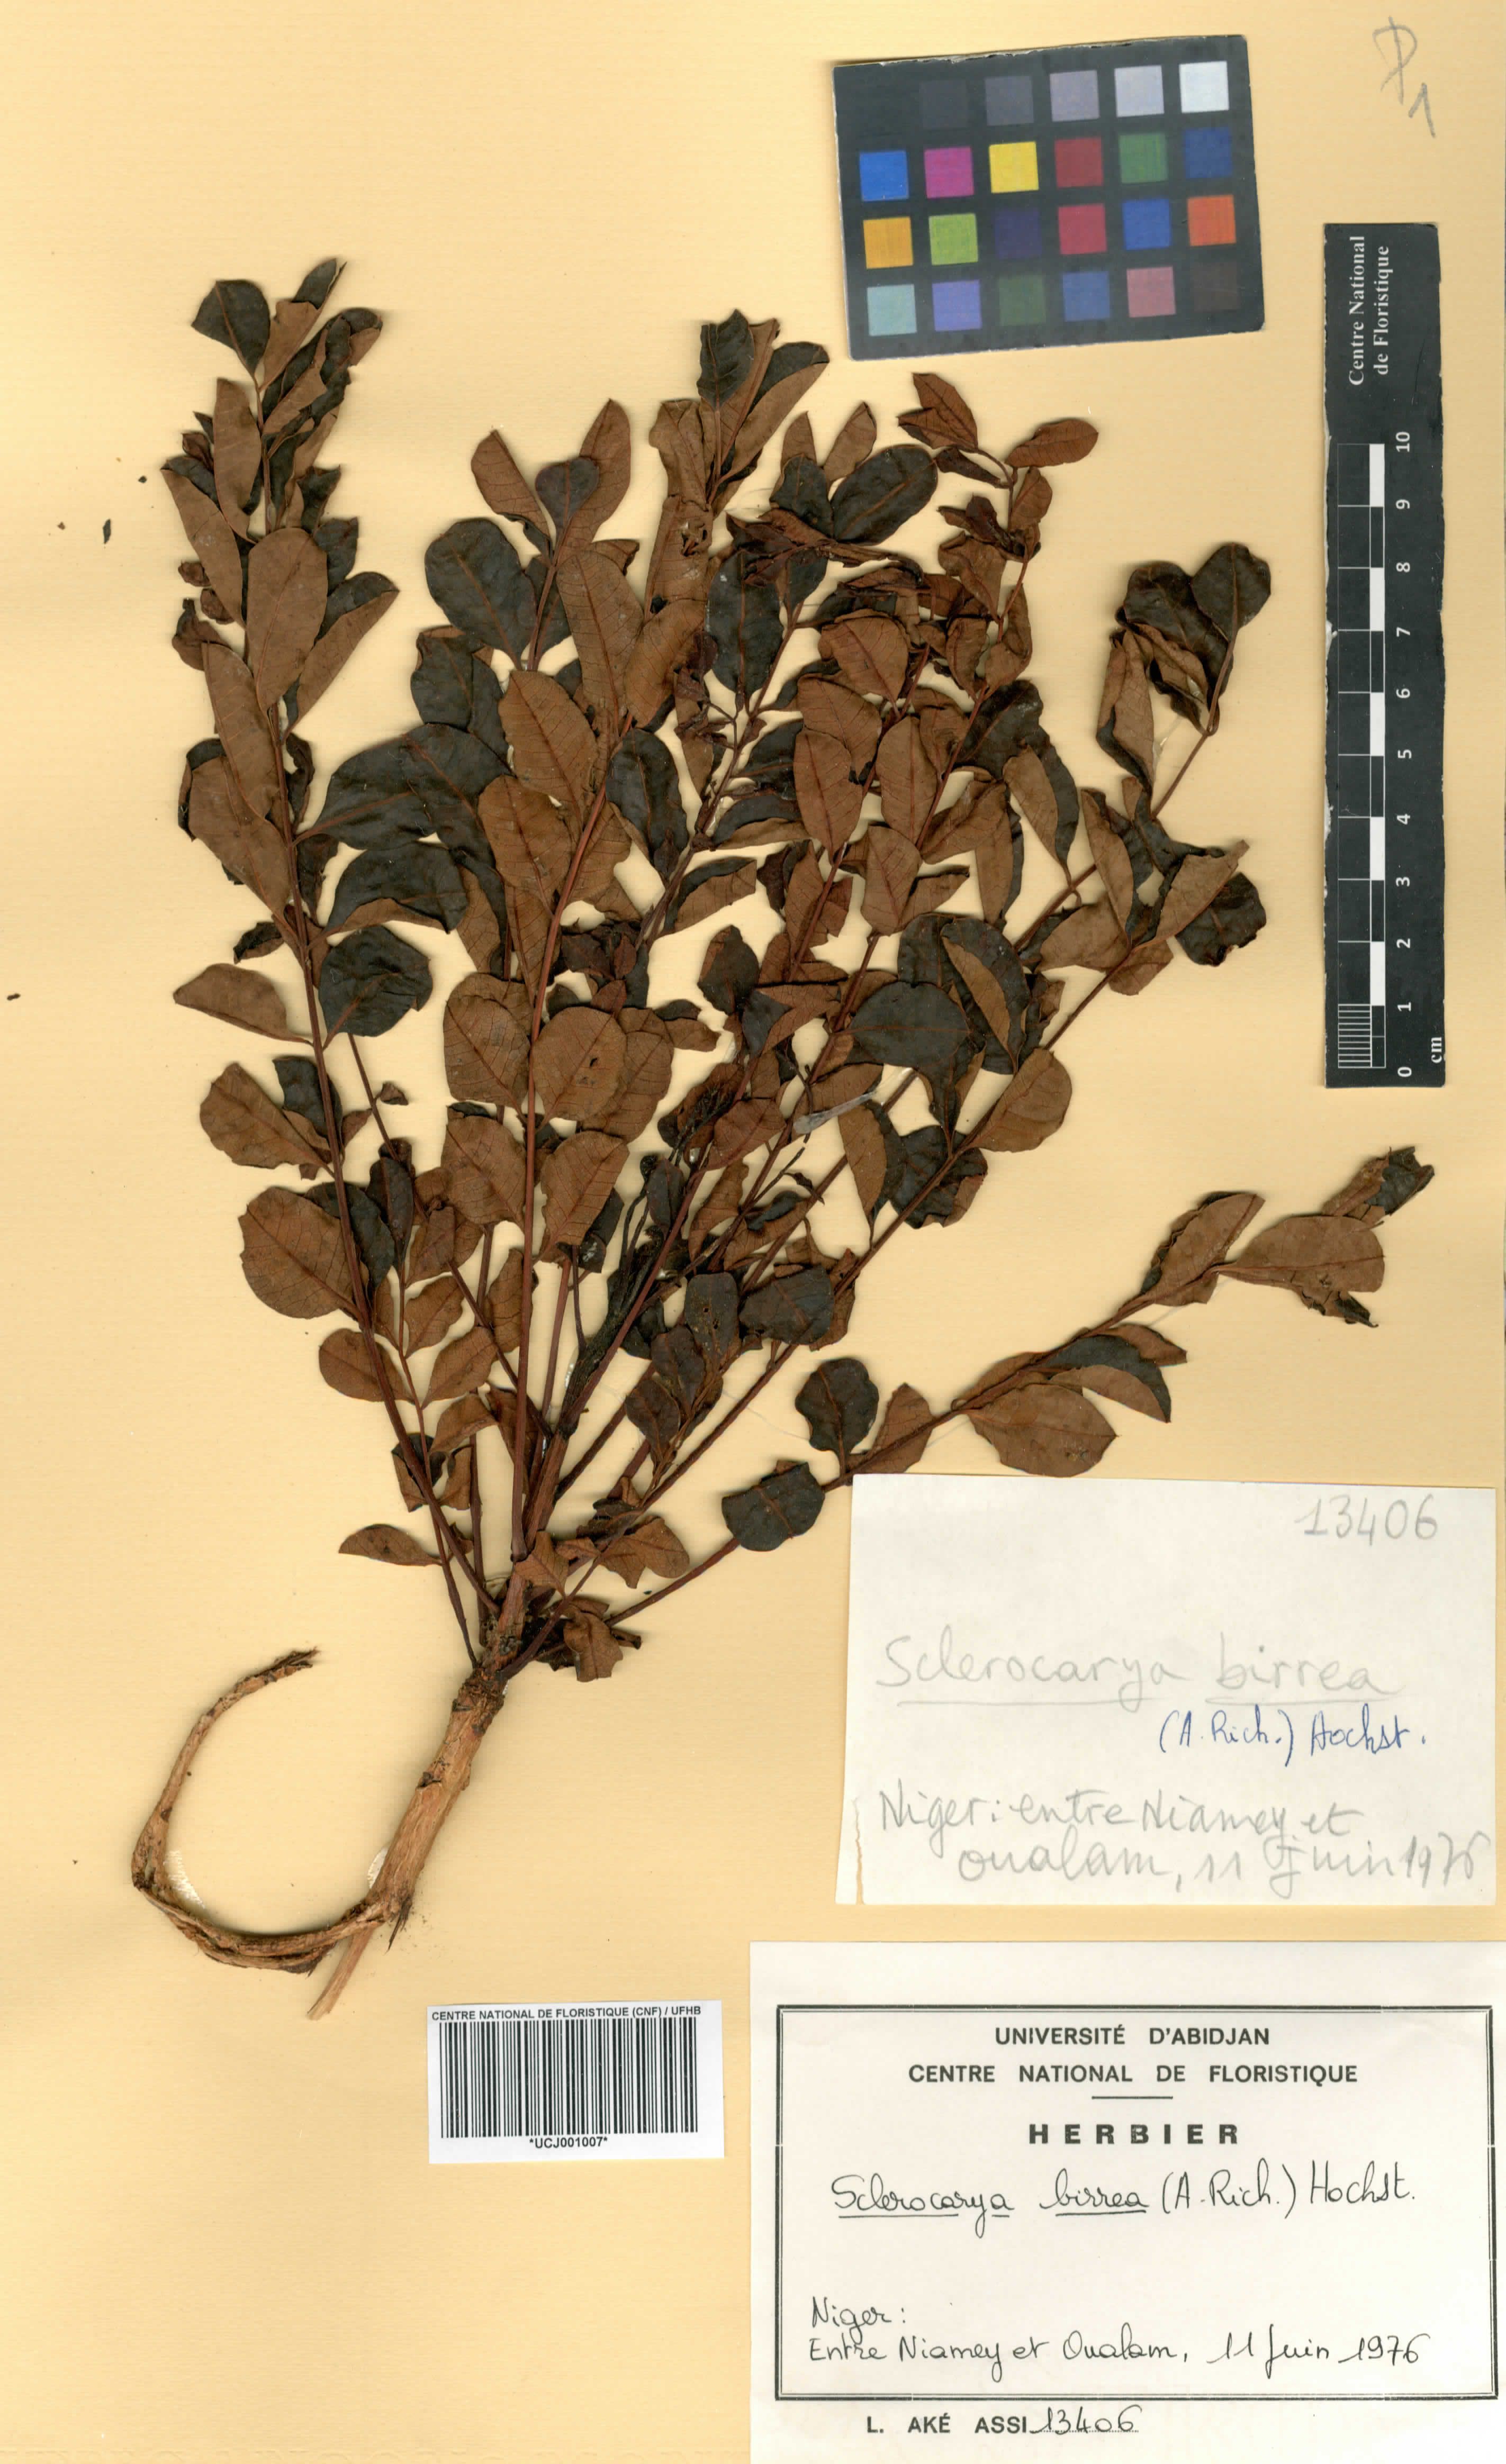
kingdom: Plantae
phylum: Tracheophyta
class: Magnoliopsida
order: Sapindales
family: Anacardiaceae
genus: Sclerocarya
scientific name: Sclerocarya birrea
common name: Marula
